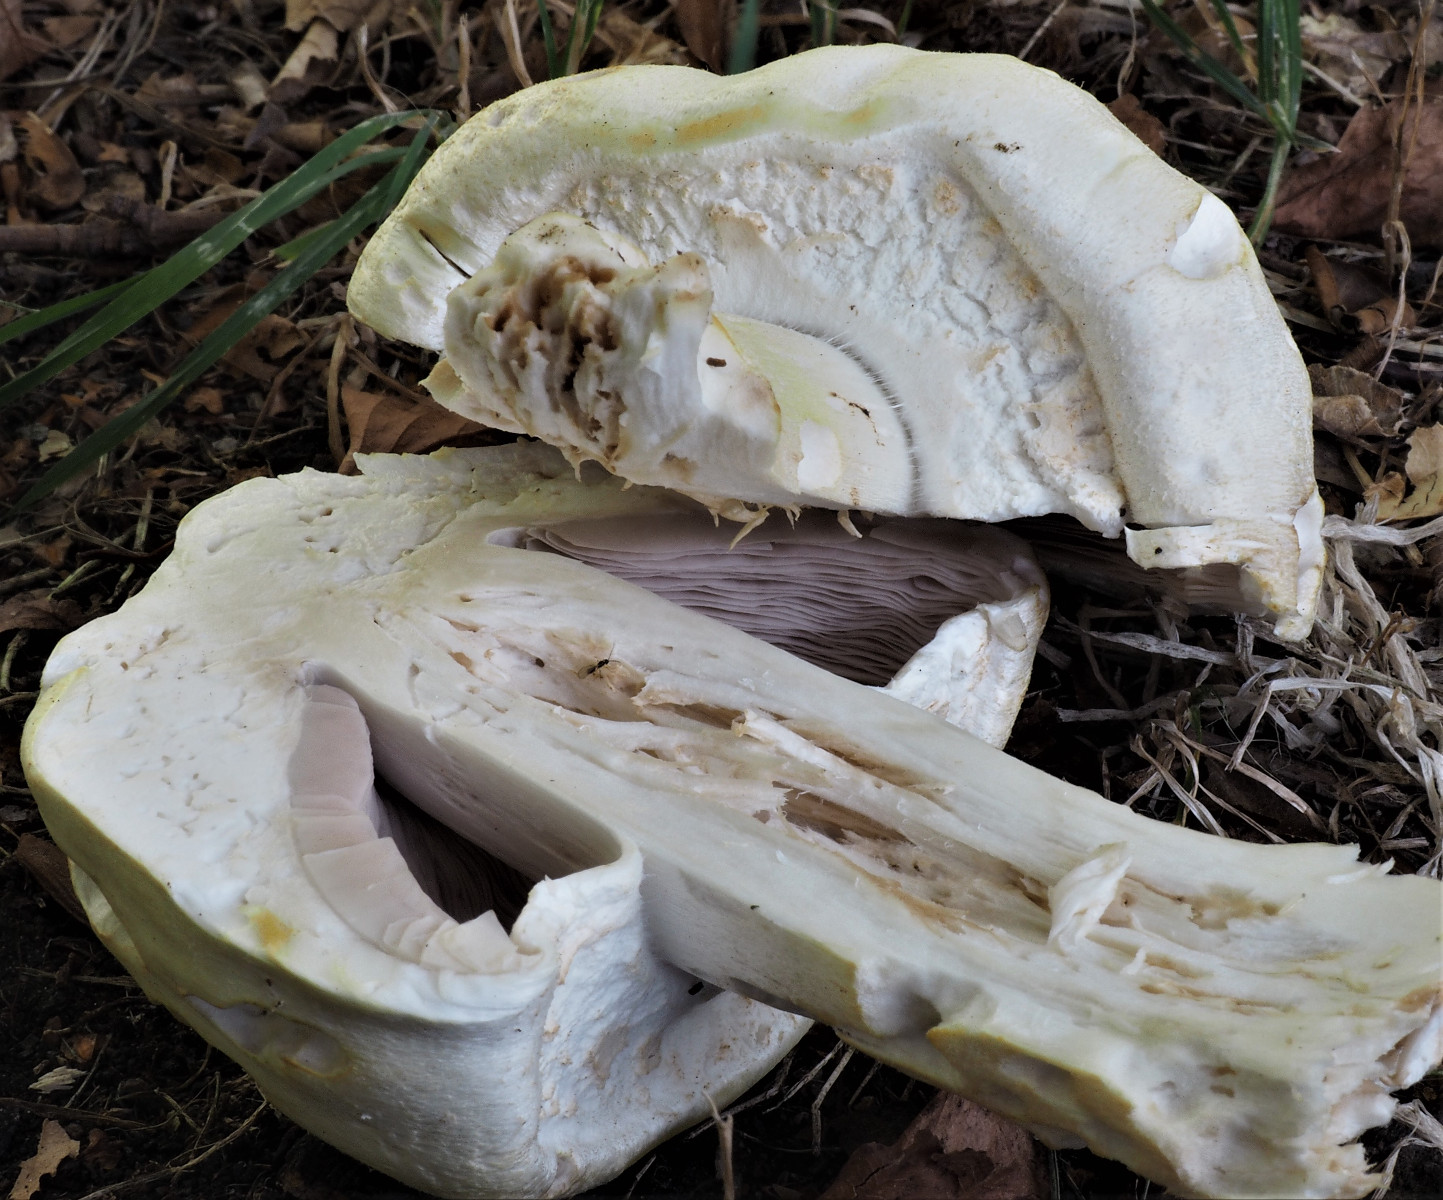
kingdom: Fungi
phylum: Basidiomycota
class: Agaricomycetes
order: Agaricales
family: Agaricaceae
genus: Agaricus
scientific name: Agaricus arvensis
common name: ager-champignon
